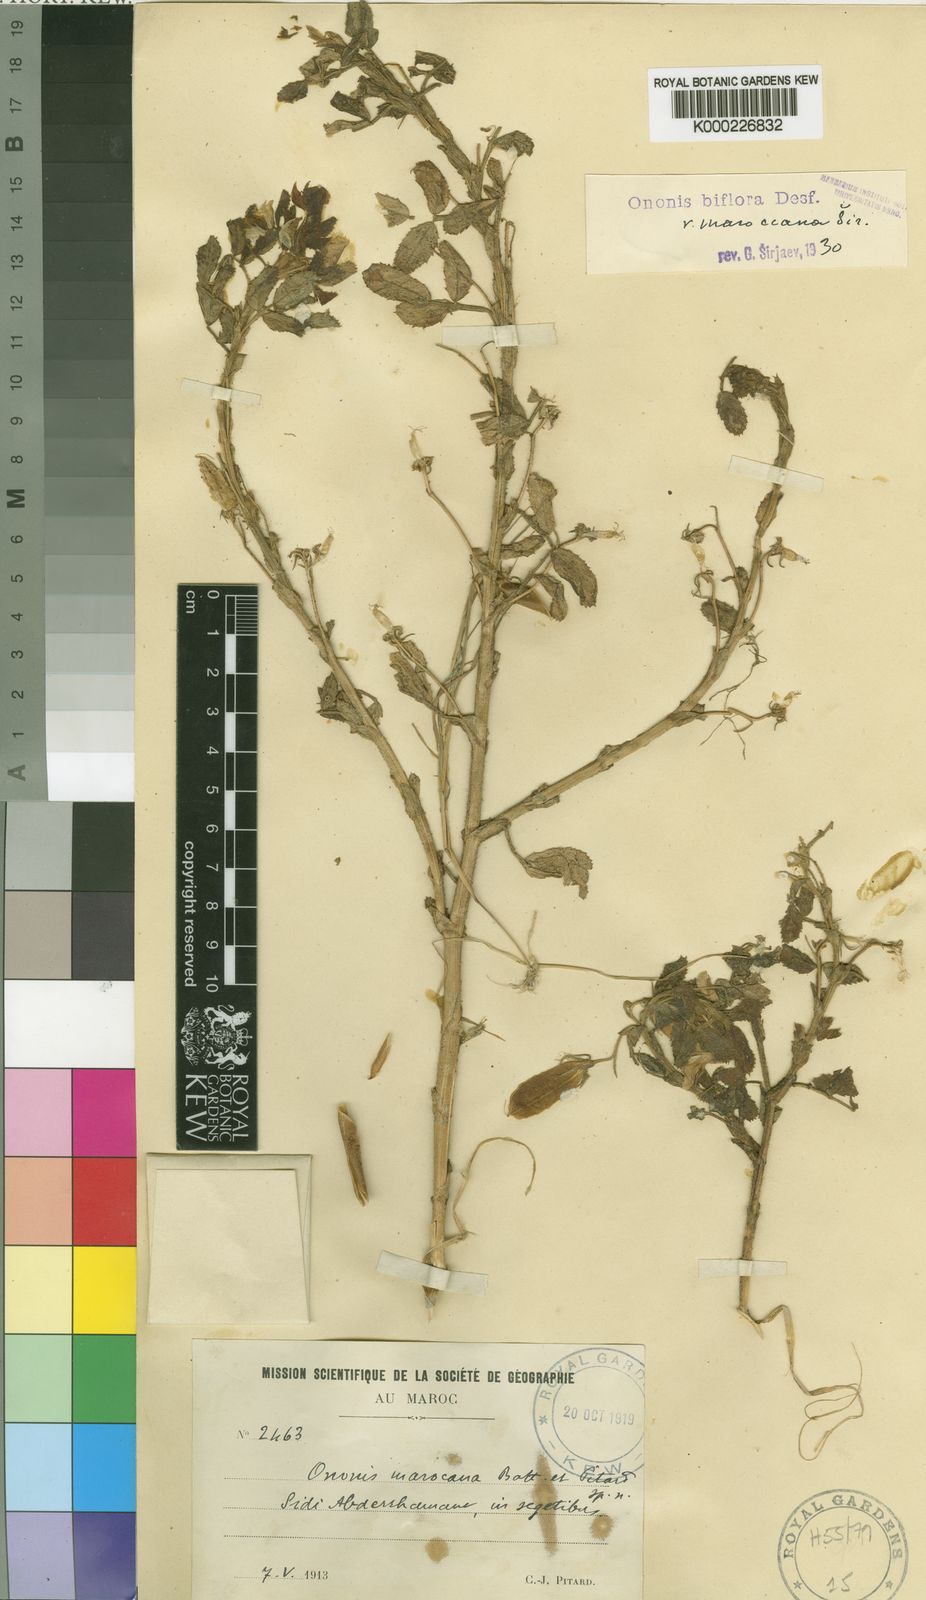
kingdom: Plantae
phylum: Tracheophyta
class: Magnoliopsida
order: Fabales
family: Fabaceae
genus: Ononis
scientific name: Ononis biflora
